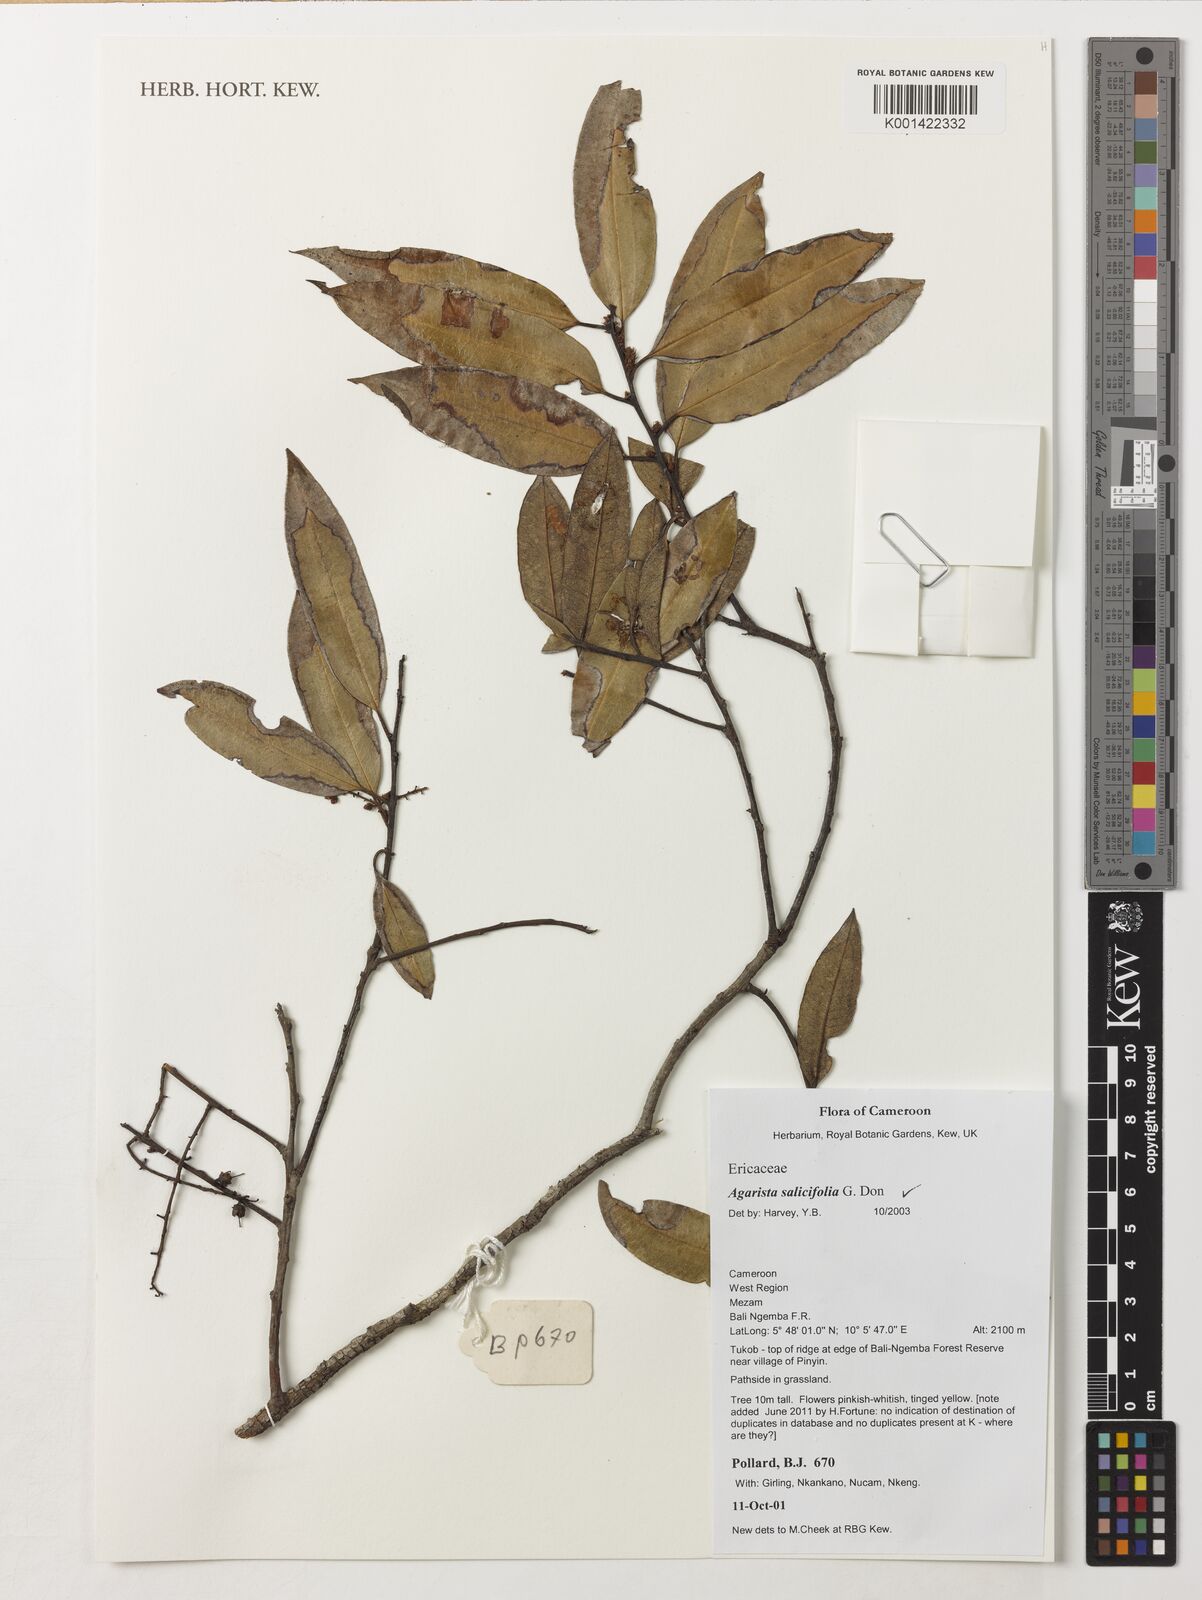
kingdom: Plantae
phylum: Tracheophyta
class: Magnoliopsida
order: Ericales
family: Ericaceae
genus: Agarista
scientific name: Agarista salicifolia
